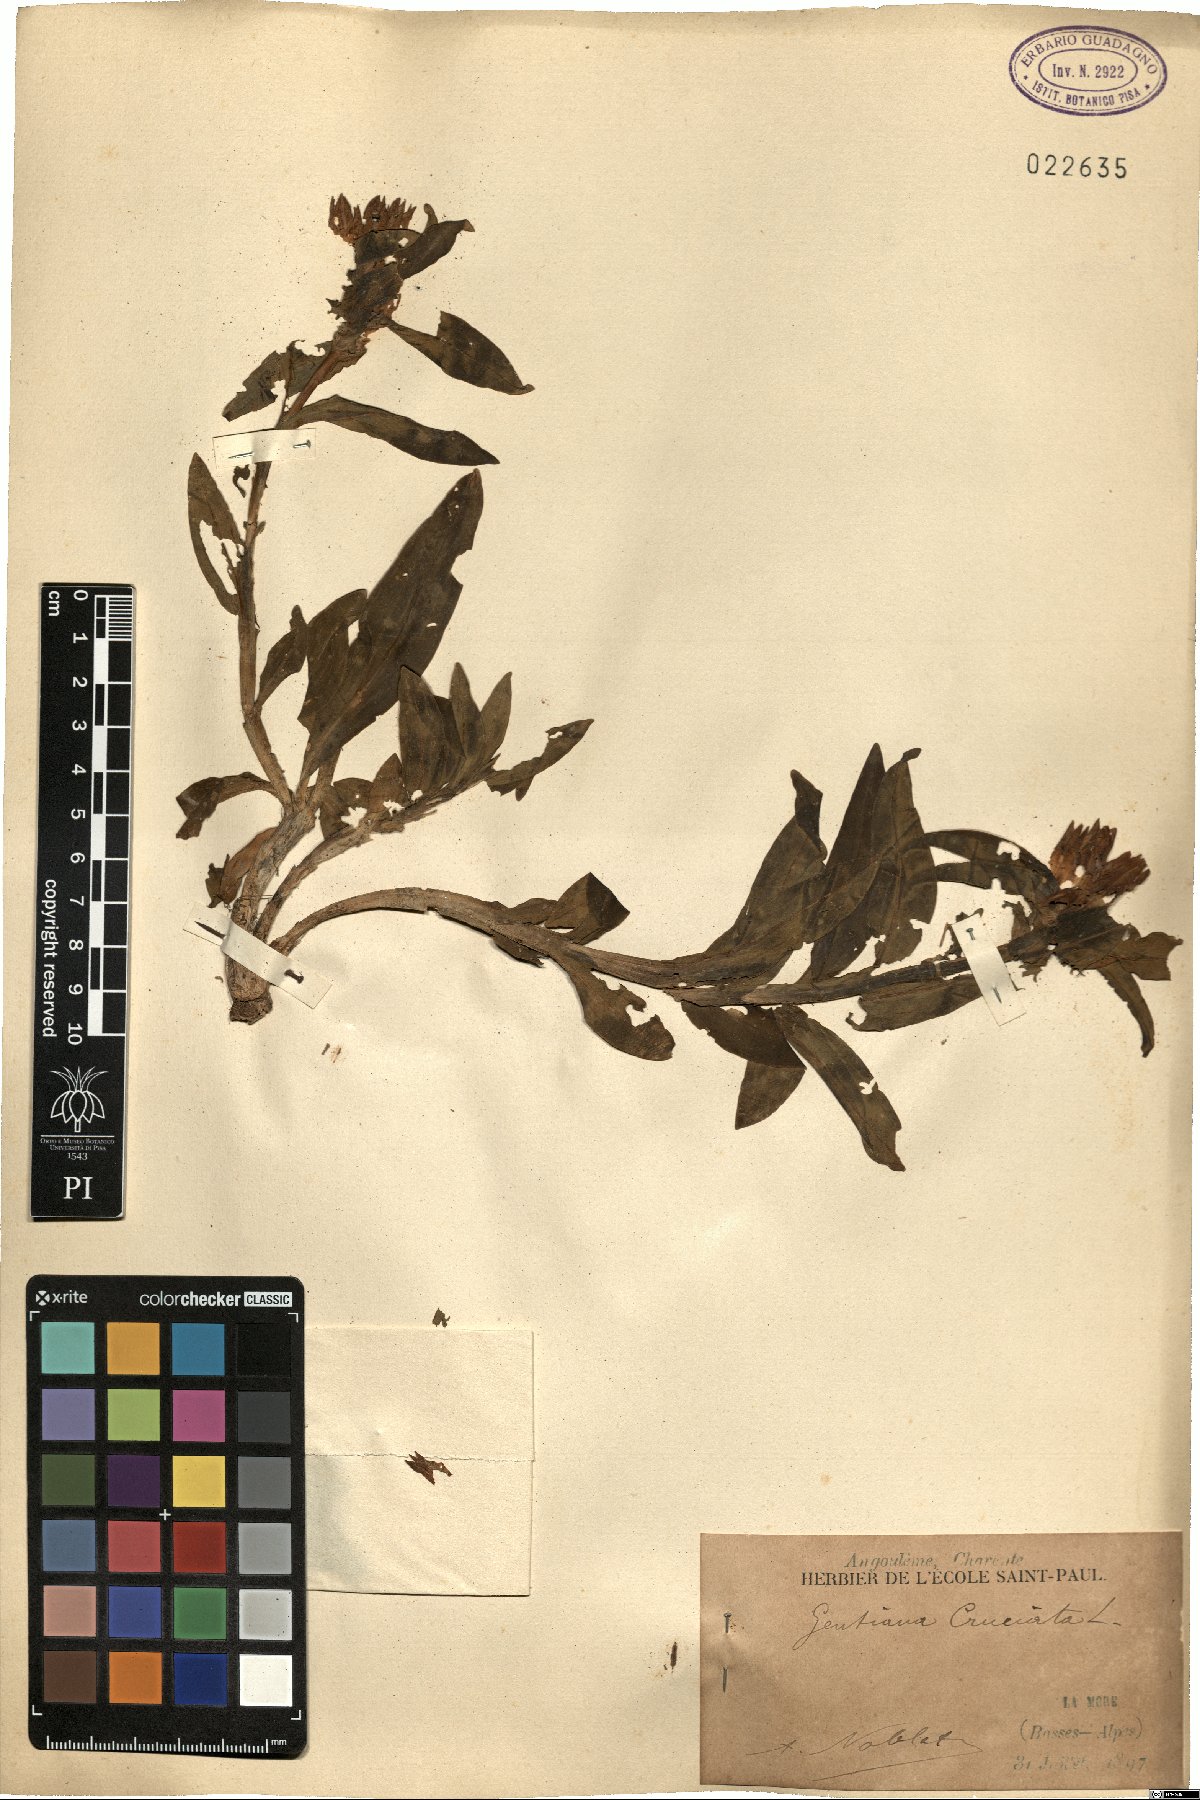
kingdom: Plantae
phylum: Tracheophyta
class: Magnoliopsida
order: Gentianales
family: Gentianaceae
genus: Gentiana
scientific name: Gentiana cruciata
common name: Cross gentian
